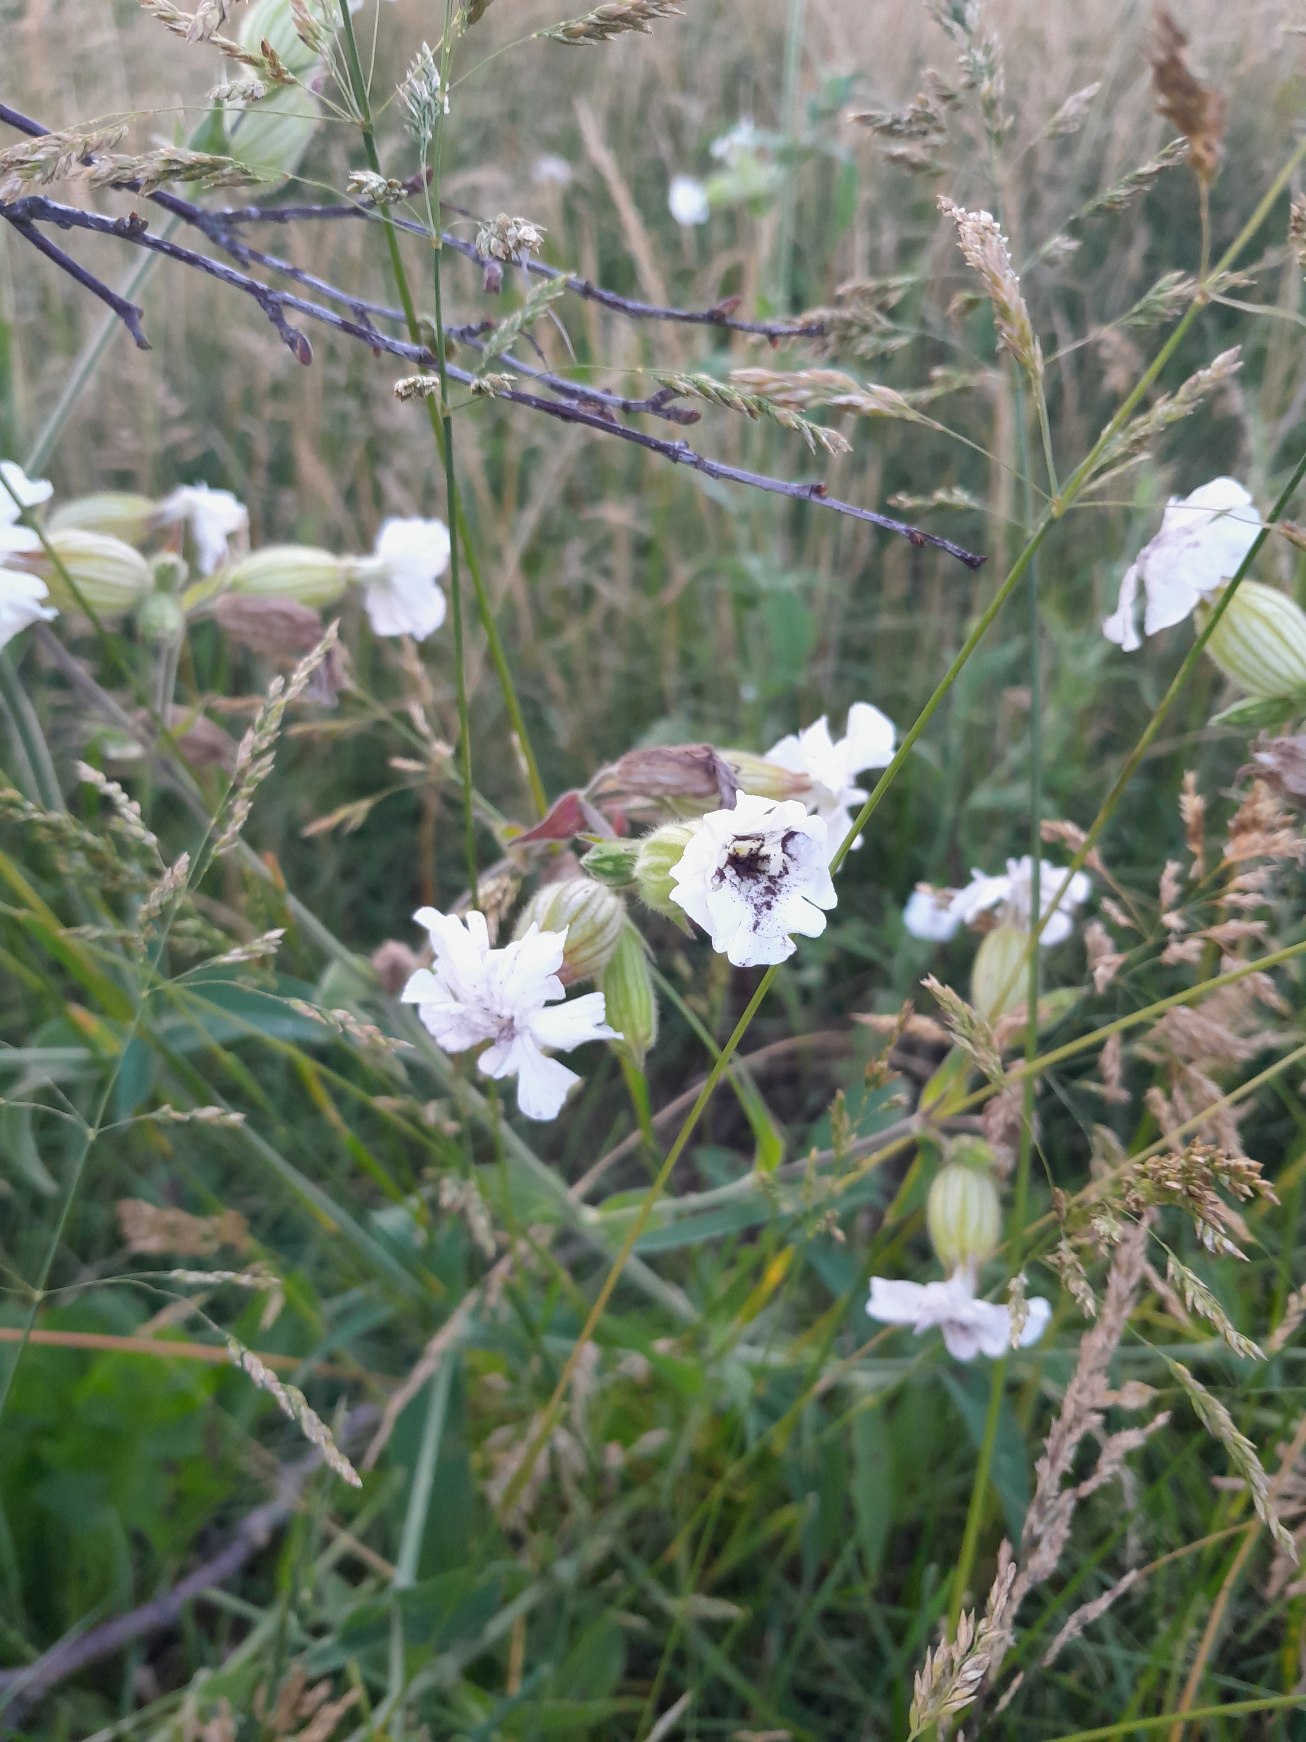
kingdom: Plantae
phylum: Tracheophyta
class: Magnoliopsida
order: Caryophyllales
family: Caryophyllaceae
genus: Silene
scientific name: Silene latifolia
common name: Aftenpragtstjerne
